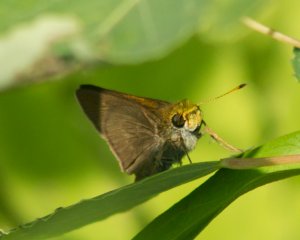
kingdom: Animalia
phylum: Arthropoda
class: Insecta
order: Lepidoptera
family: Hesperiidae
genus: Euphyes
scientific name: Euphyes vestris
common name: Dun Skipper
